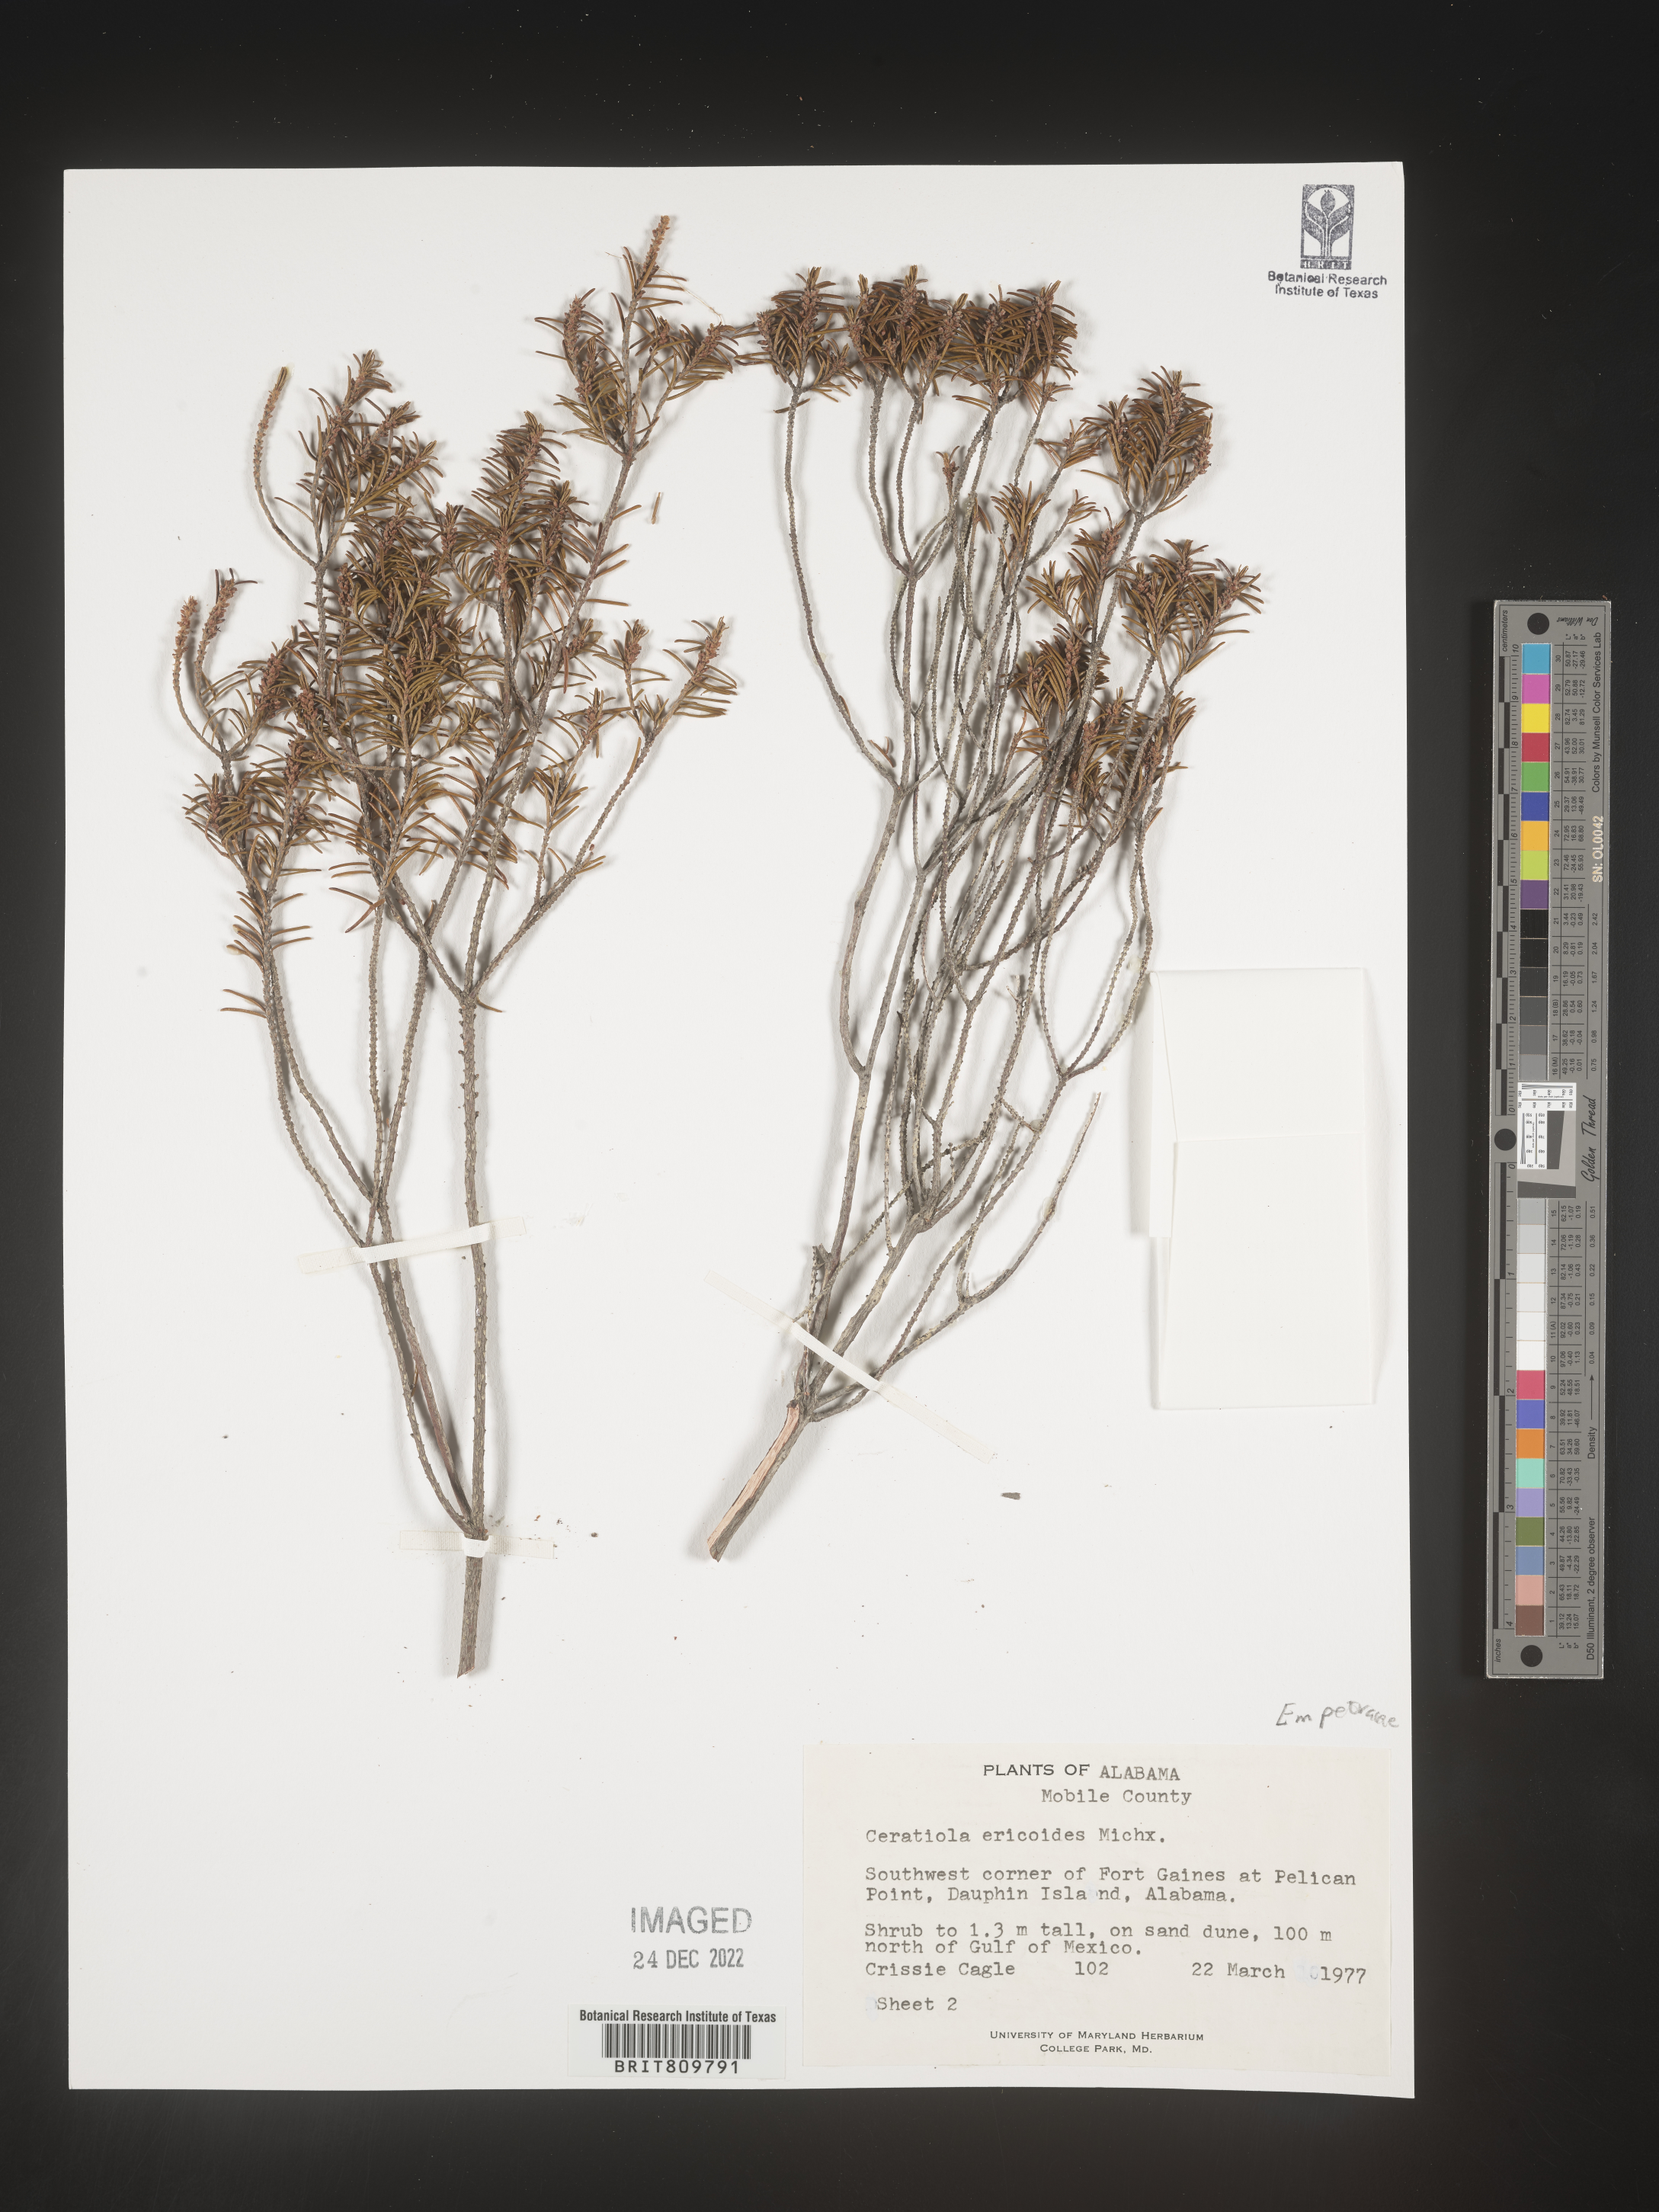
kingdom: Plantae
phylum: Tracheophyta
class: Magnoliopsida
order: Ericales
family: Ericaceae
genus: Ceratiola
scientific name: Ceratiola ericoides
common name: Sandhill-rosemary
